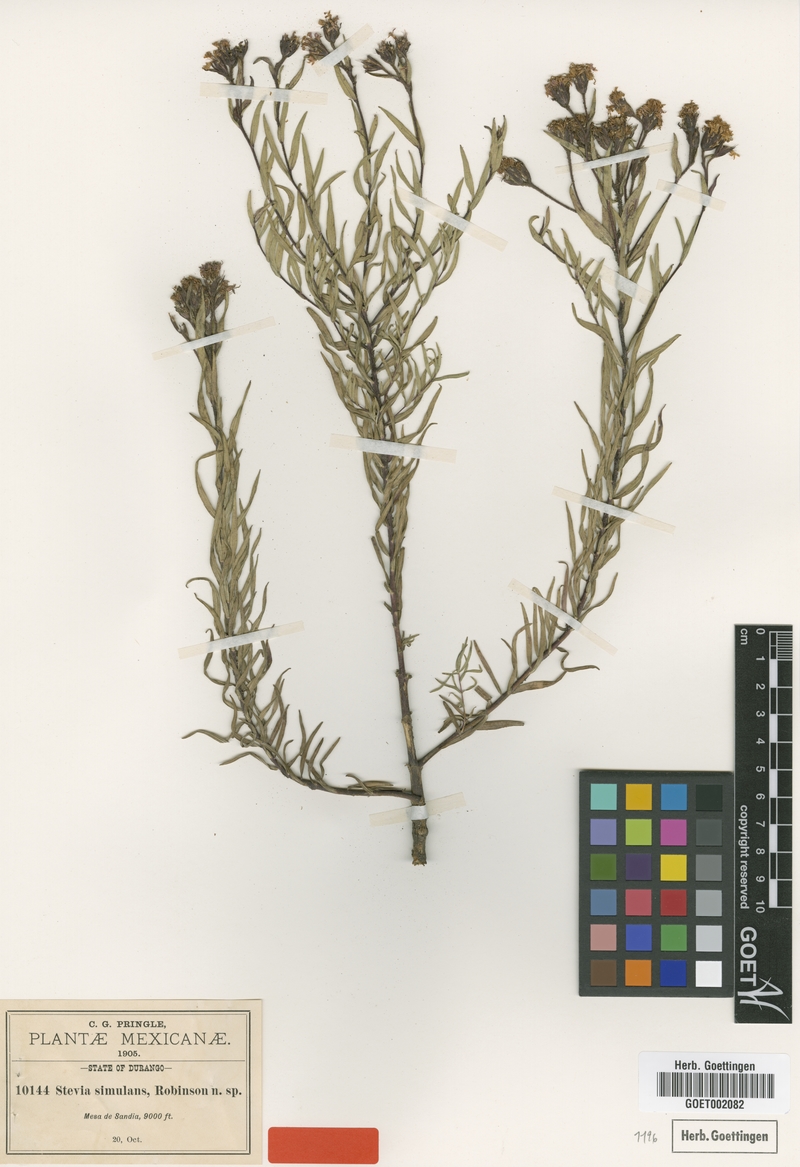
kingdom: Plantae
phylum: Tracheophyta
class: Magnoliopsida
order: Asterales
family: Asteraceae
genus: Carphochaete
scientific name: Carphochaete pringlei
